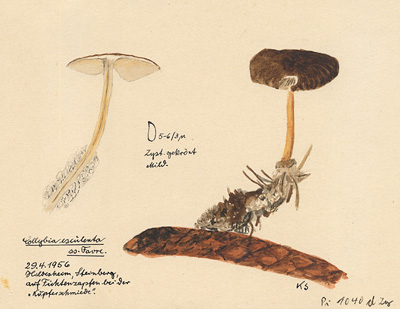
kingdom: Fungi
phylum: Basidiomycota
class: Agaricomycetes
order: Agaricales
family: Physalacriaceae
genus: Strobilurus
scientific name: Strobilurus esculentus
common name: Sprucecone cap
